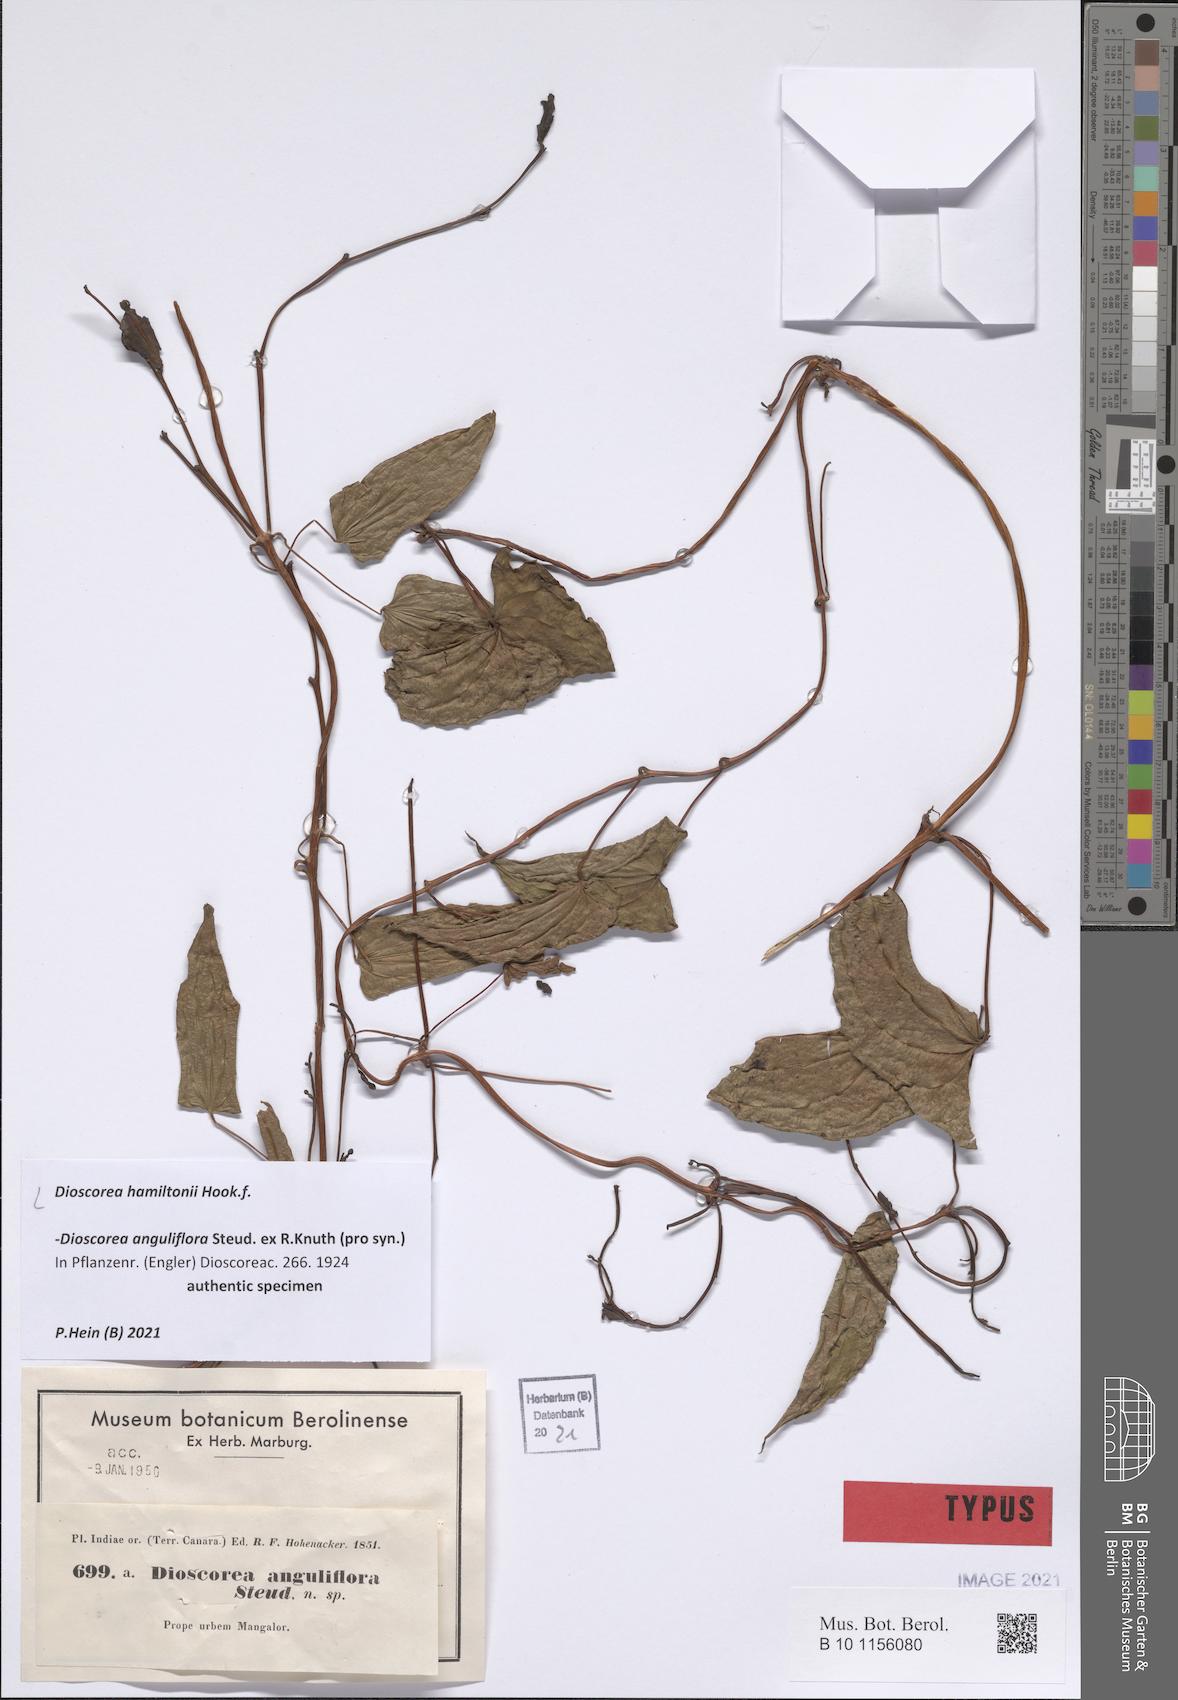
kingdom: Plantae
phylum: Tracheophyta
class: Liliopsida
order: Dioscoreales
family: Dioscoreaceae
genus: Dioscorea
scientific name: Dioscorea hamiltonii
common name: Mountain yam
